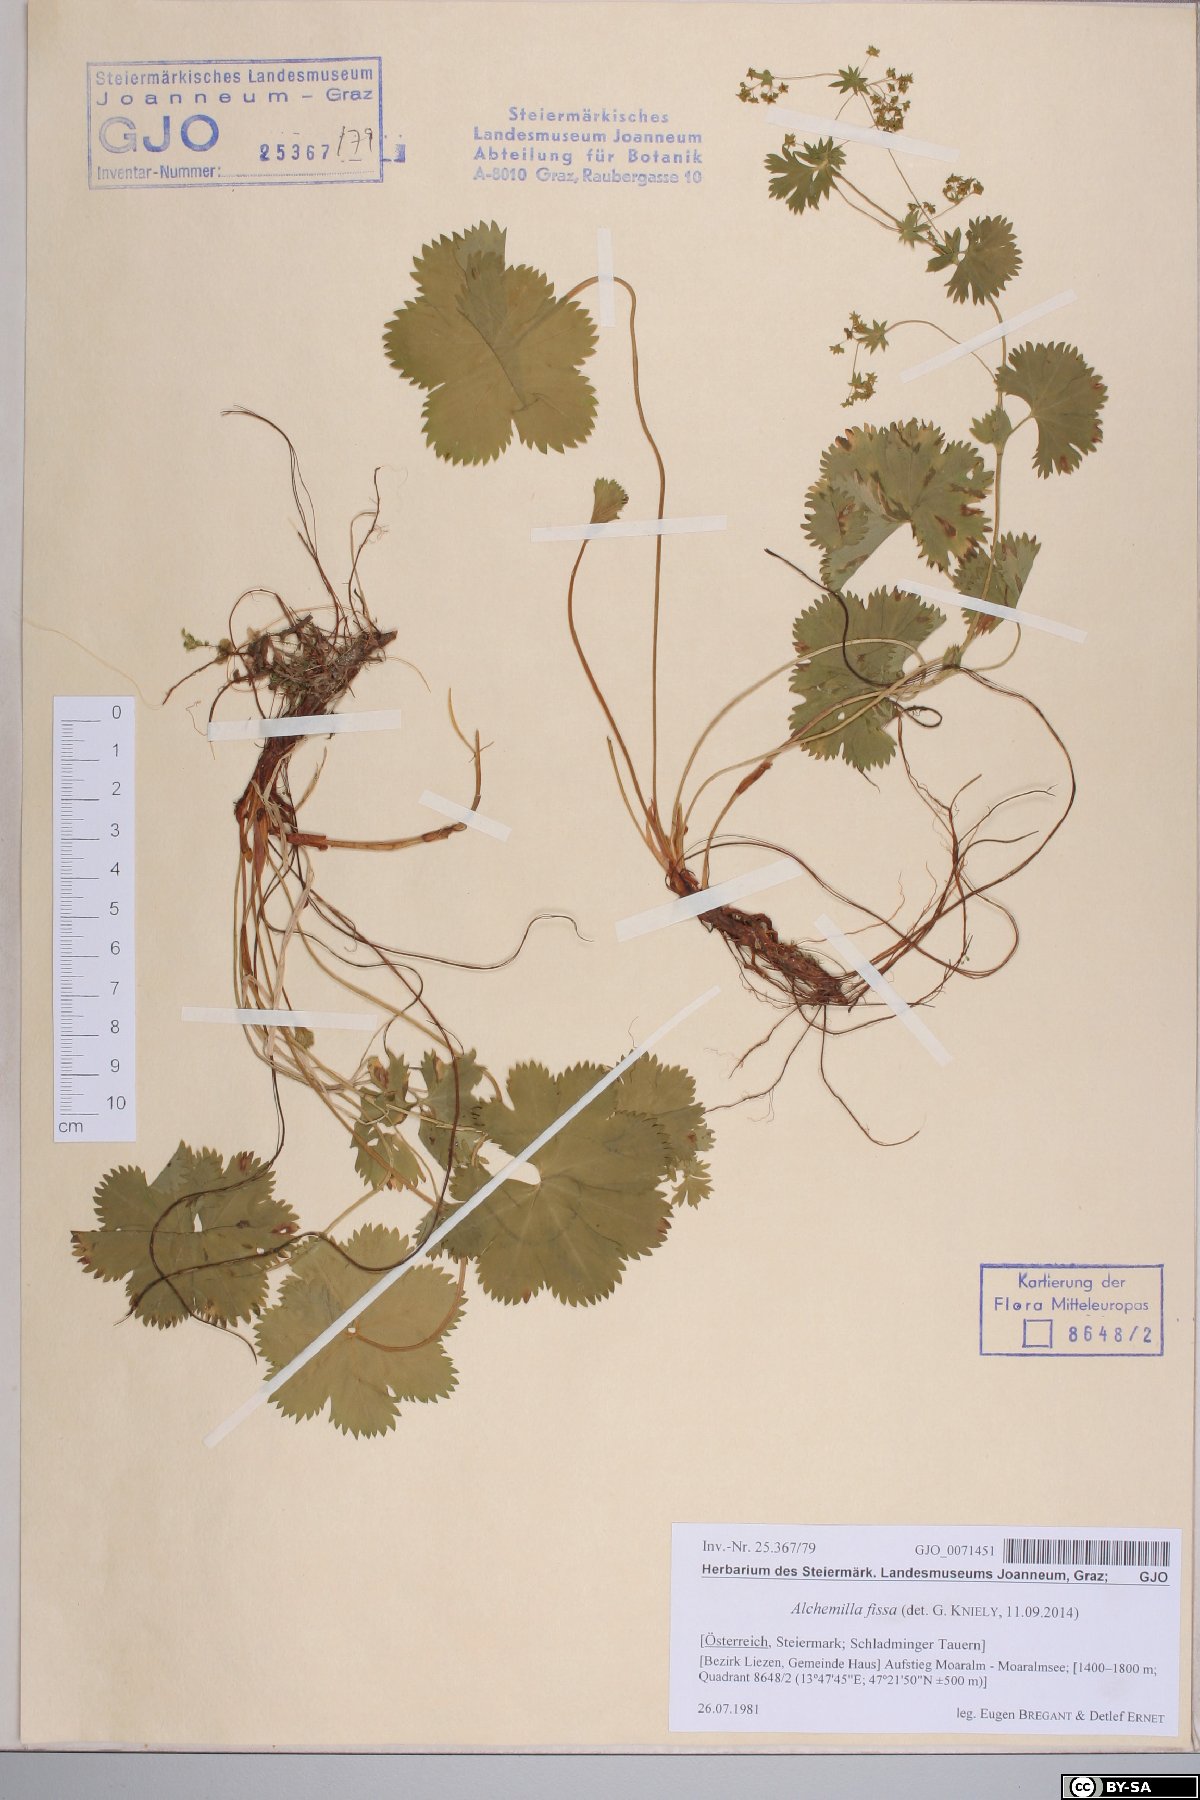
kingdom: Plantae
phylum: Tracheophyta
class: Magnoliopsida
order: Rosales
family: Rosaceae
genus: Alchemilla
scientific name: Alchemilla fissa
